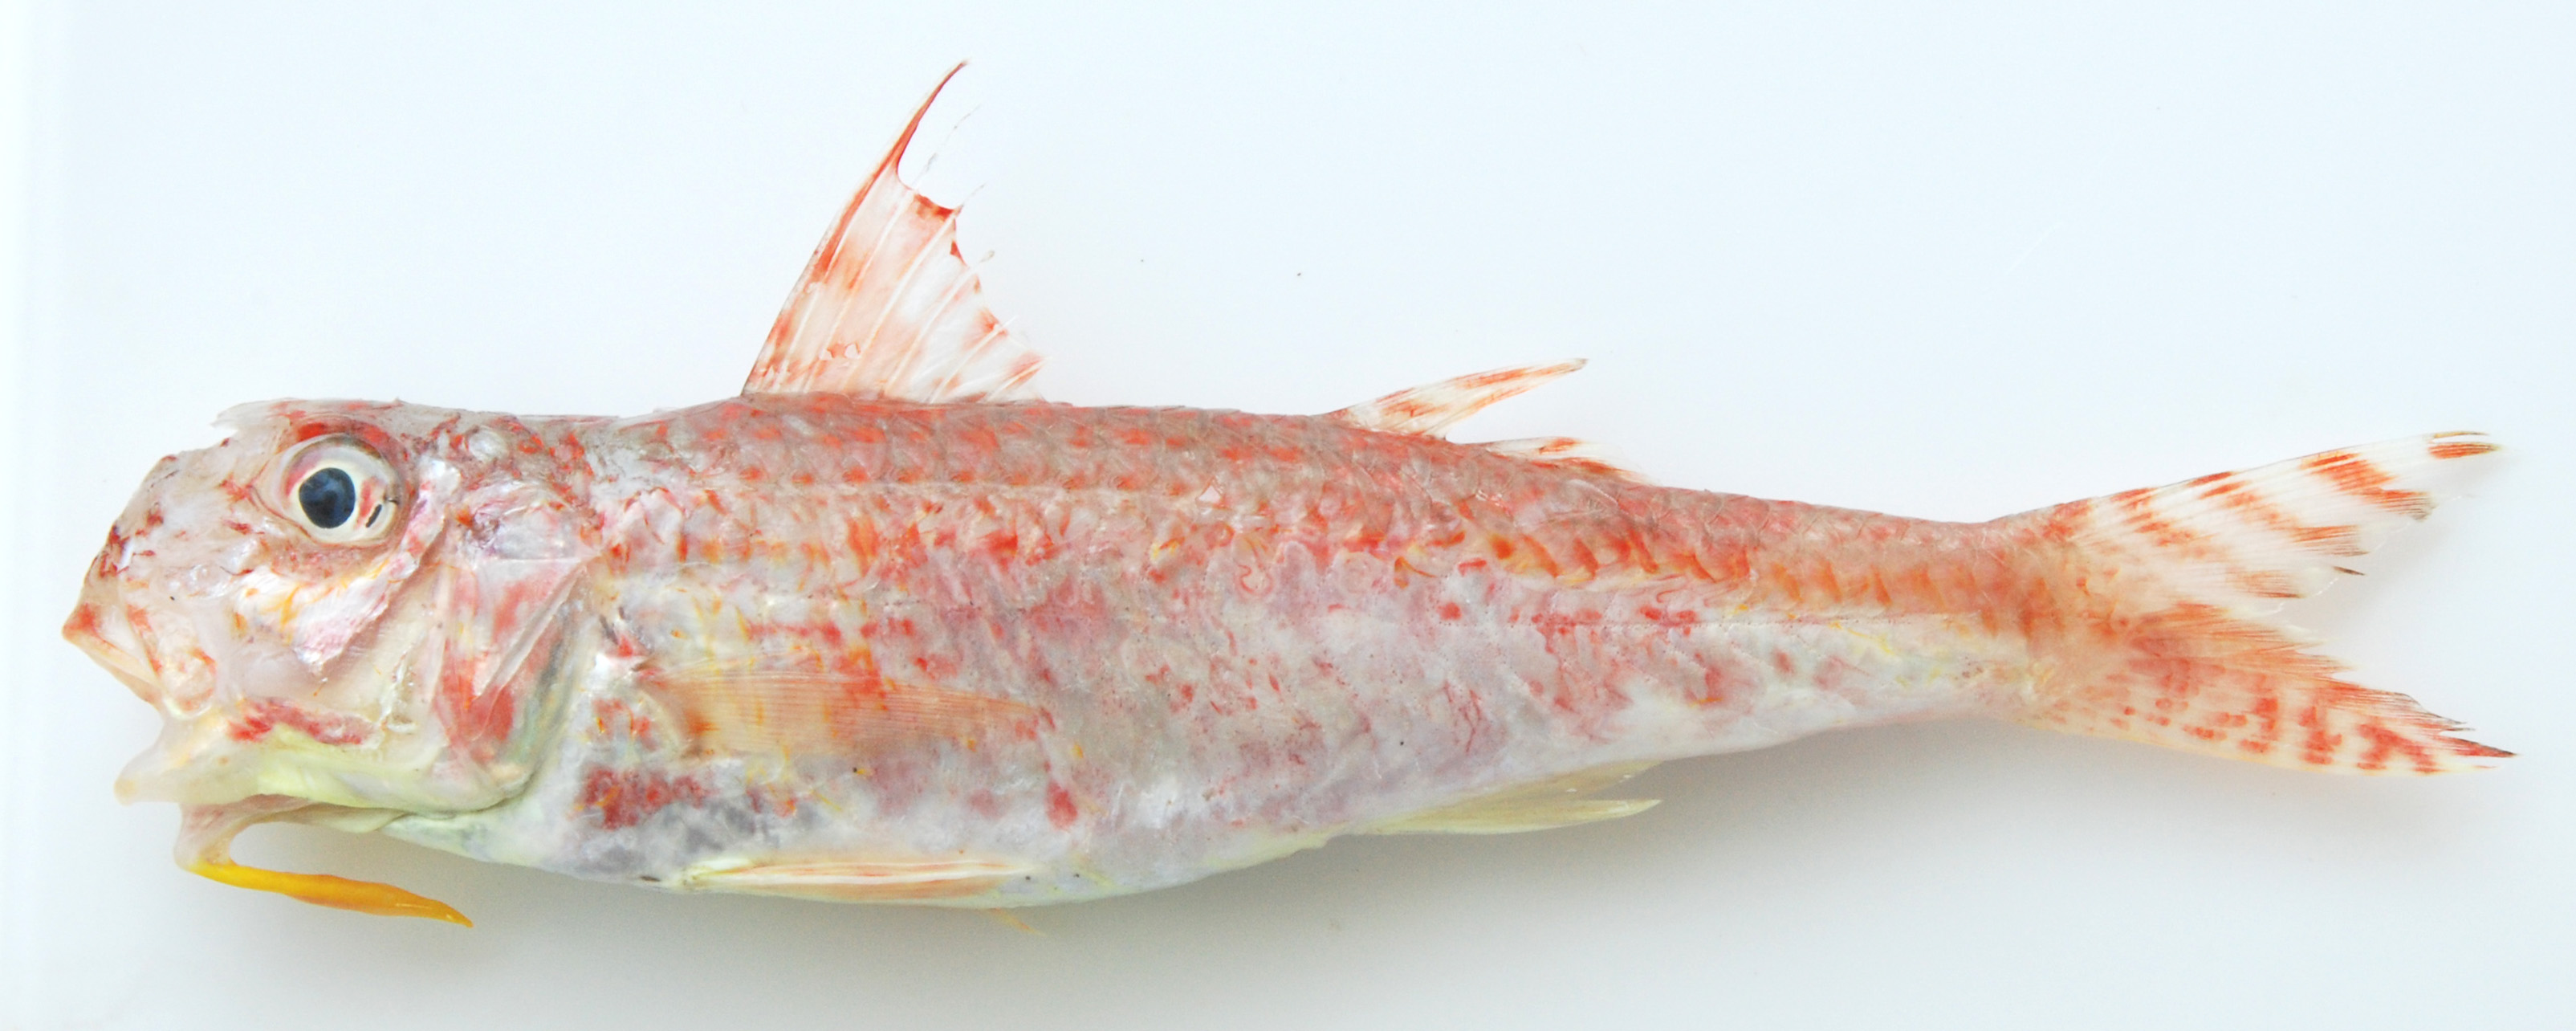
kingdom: Animalia
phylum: Chordata
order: Perciformes
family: Mullidae
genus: Upeneus
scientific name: Upeneus guttatus
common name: Spotted goatfish
